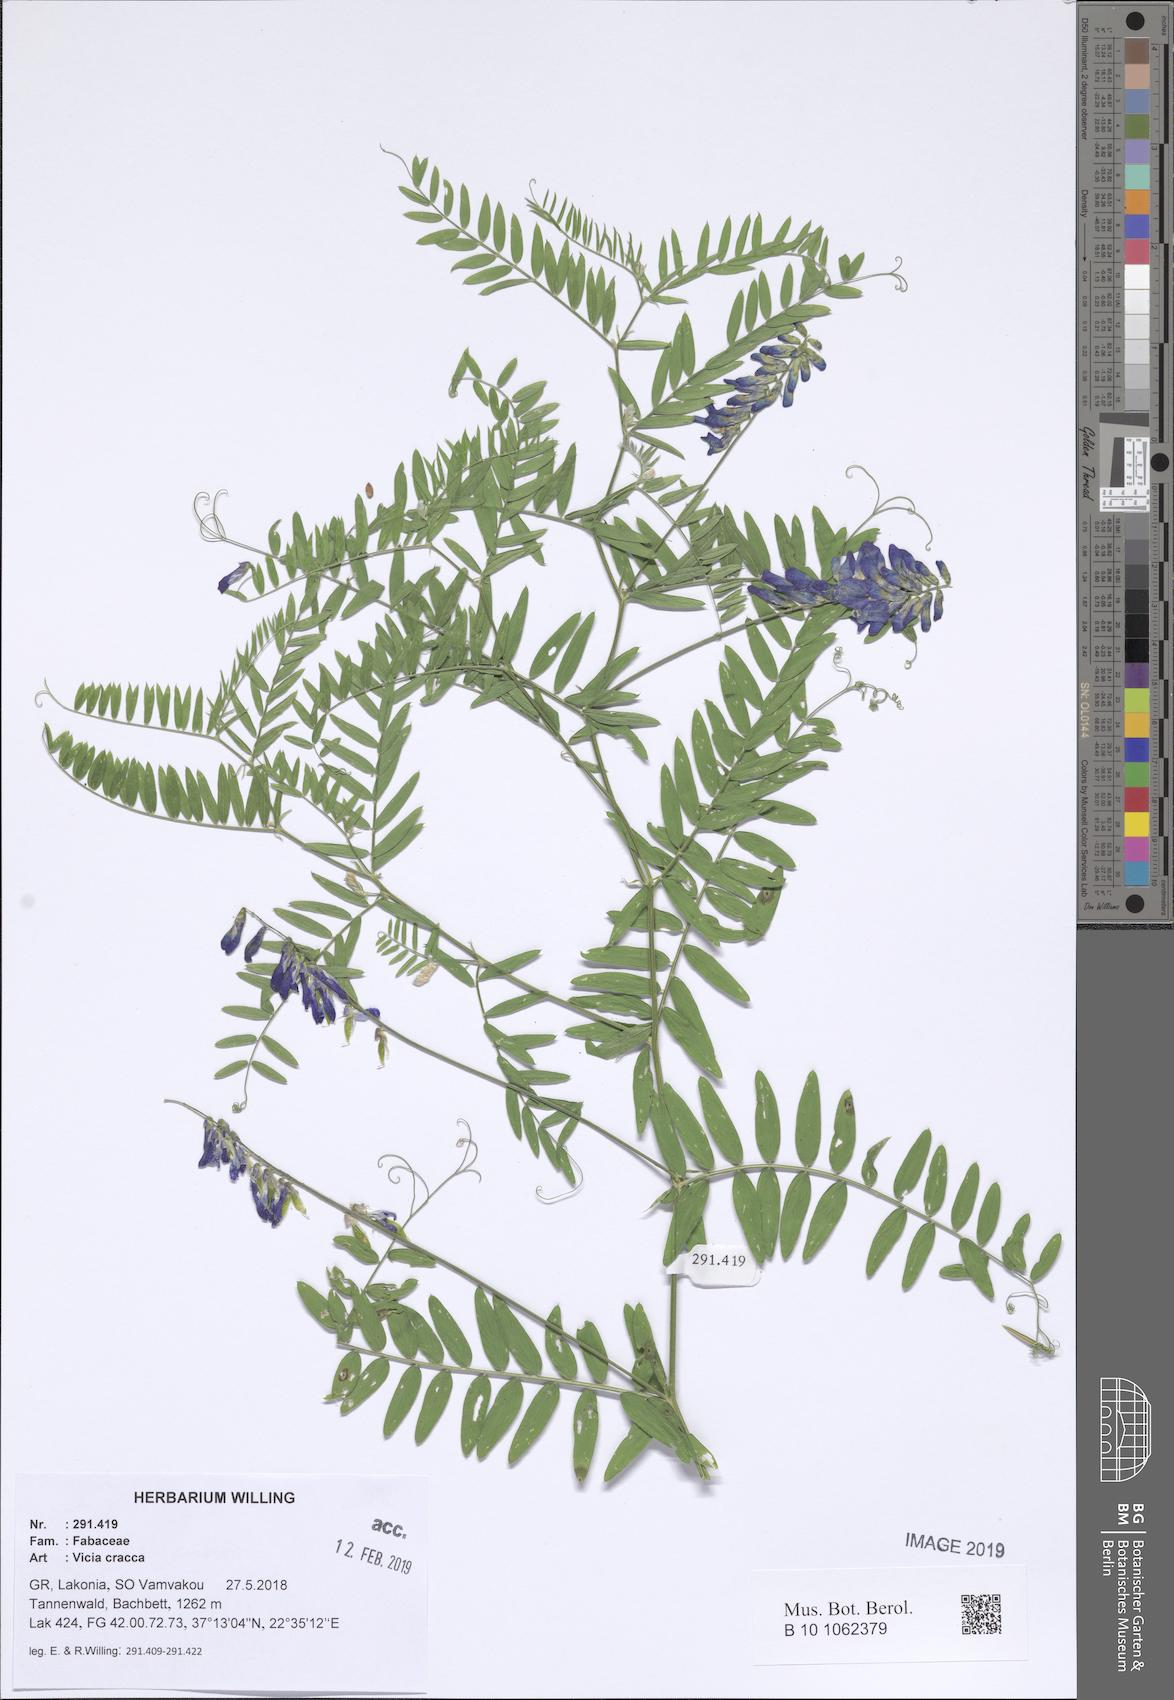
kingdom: Plantae
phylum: Tracheophyta
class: Magnoliopsida
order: Fabales
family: Fabaceae
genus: Vicia
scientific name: Vicia cracca
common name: Bird vetch
